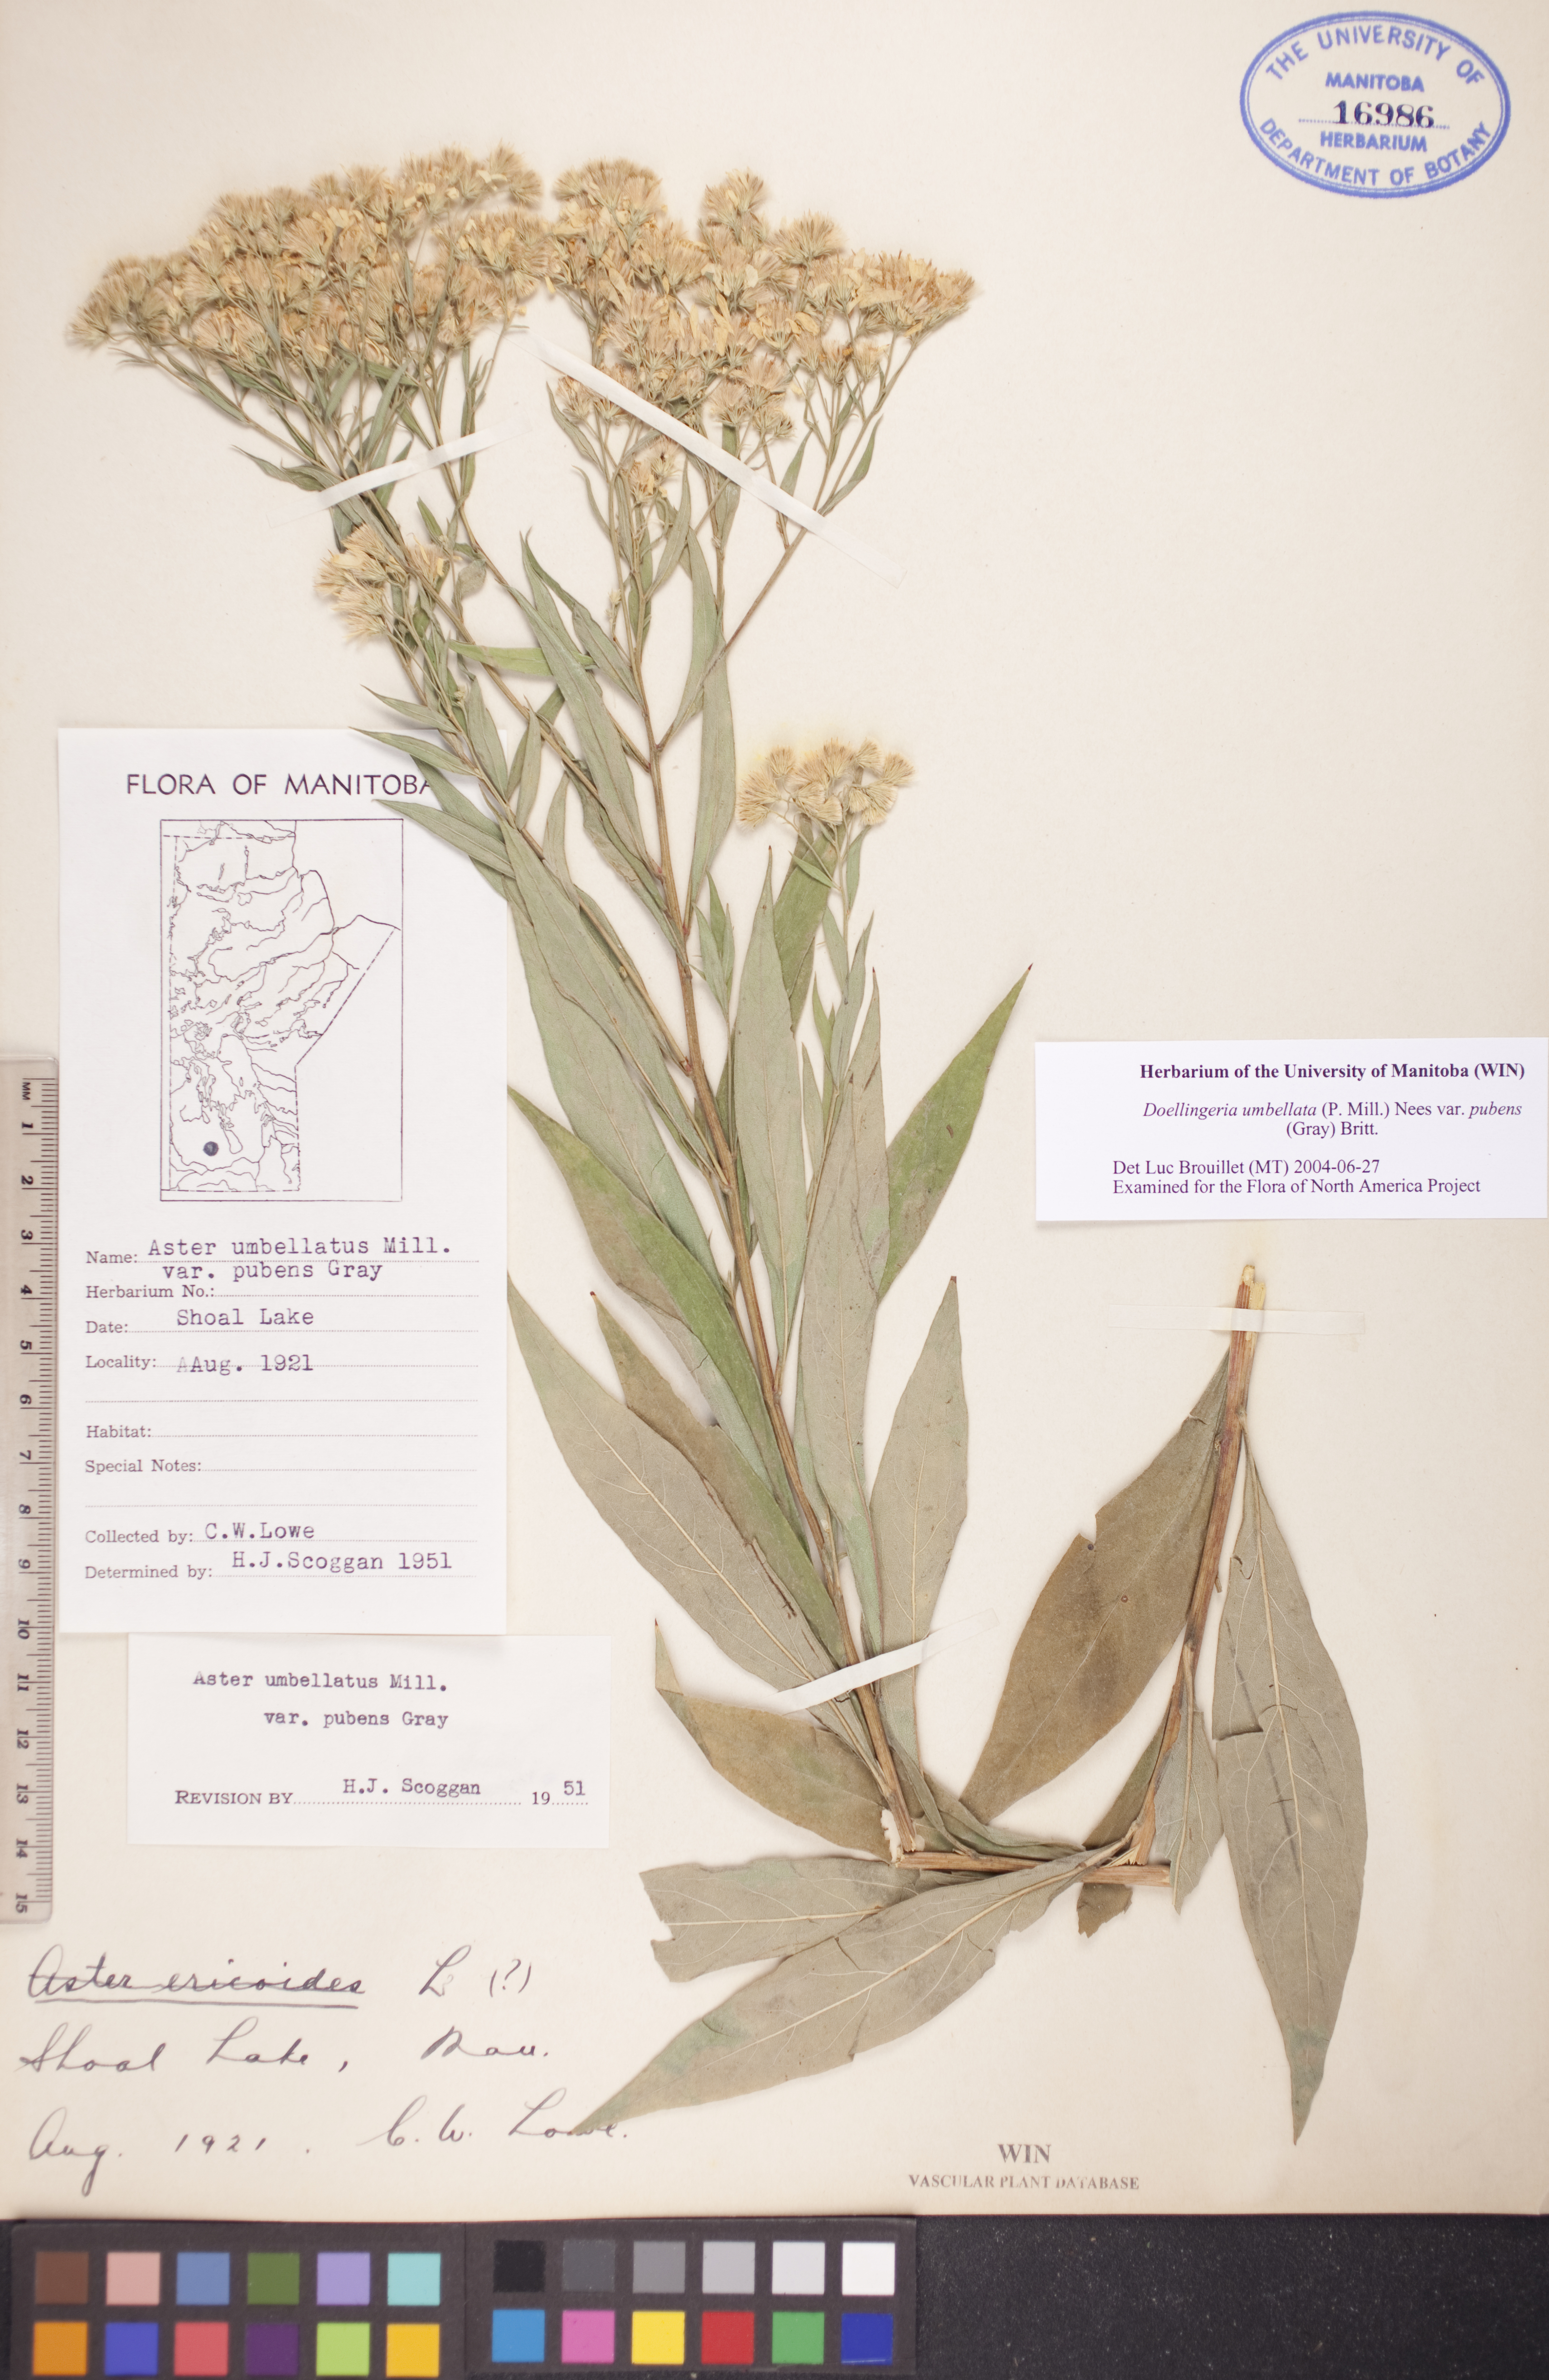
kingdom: Plantae
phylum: Tracheophyta
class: Magnoliopsida
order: Asterales
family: Asteraceae
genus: Doellingeria
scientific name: Doellingeria umbellata
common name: Flat-top white aster
